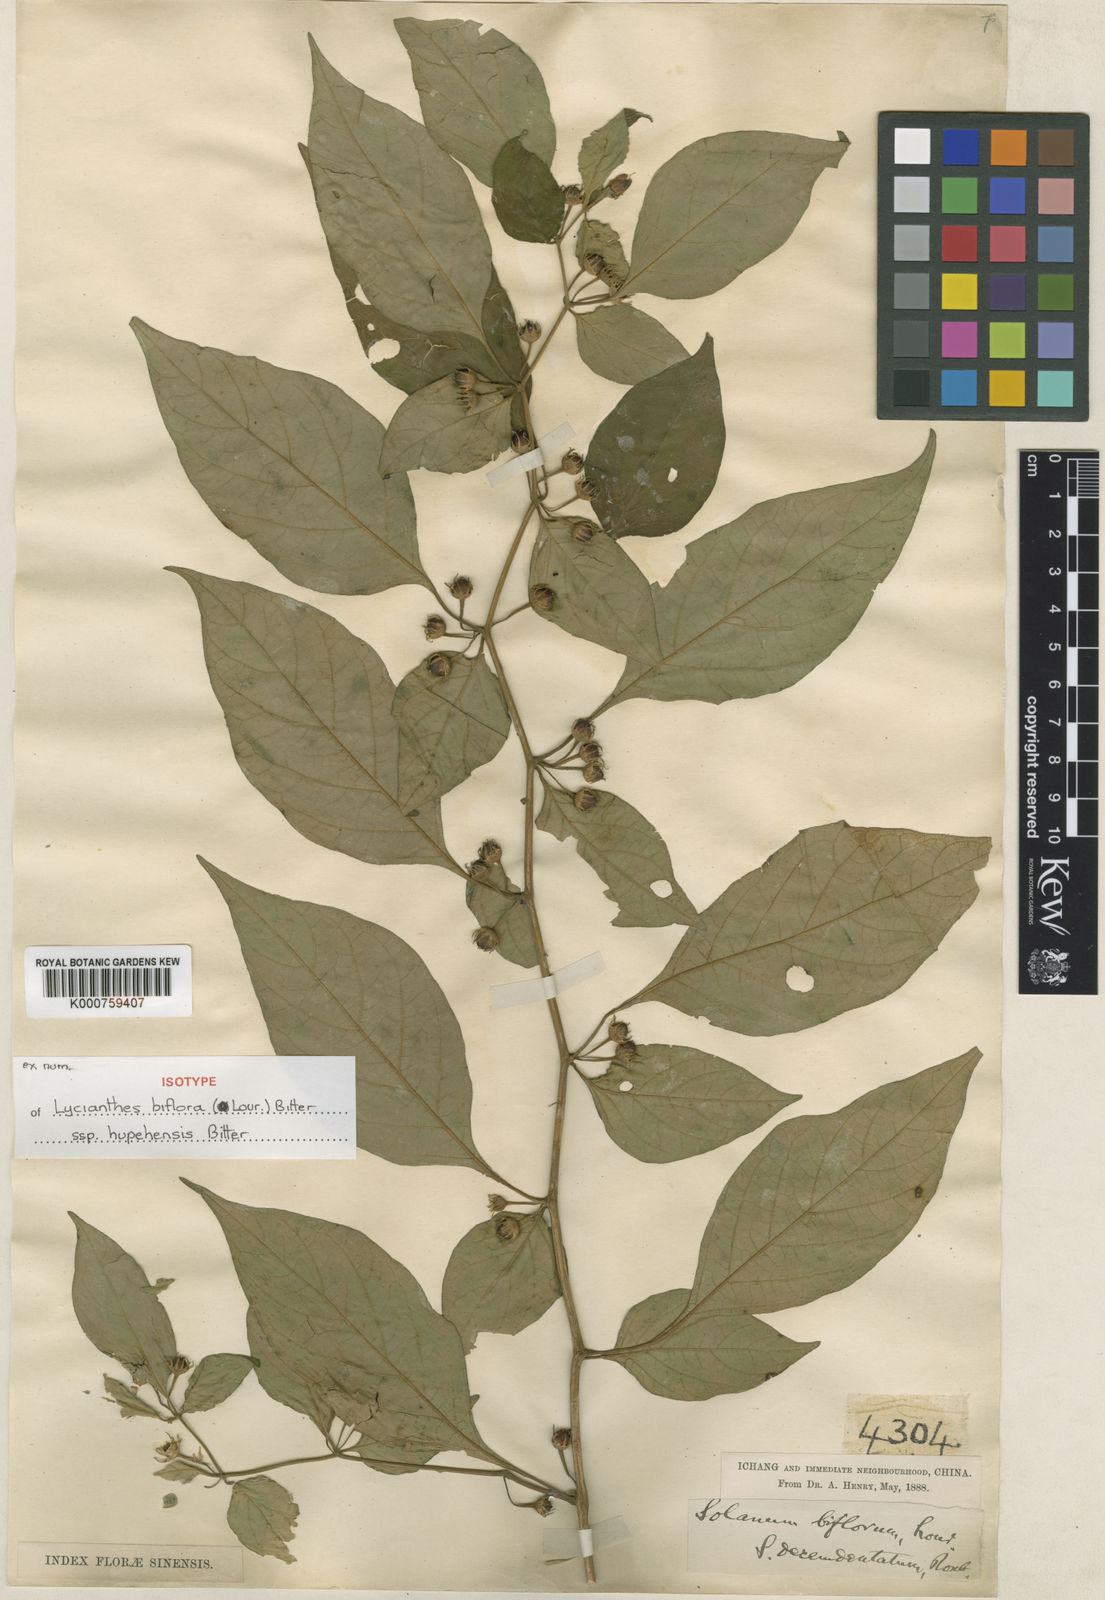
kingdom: Plantae
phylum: Tracheophyta
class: Magnoliopsida
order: Solanales
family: Solanaceae
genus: Lycianthes
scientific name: Lycianthes hupehensis
